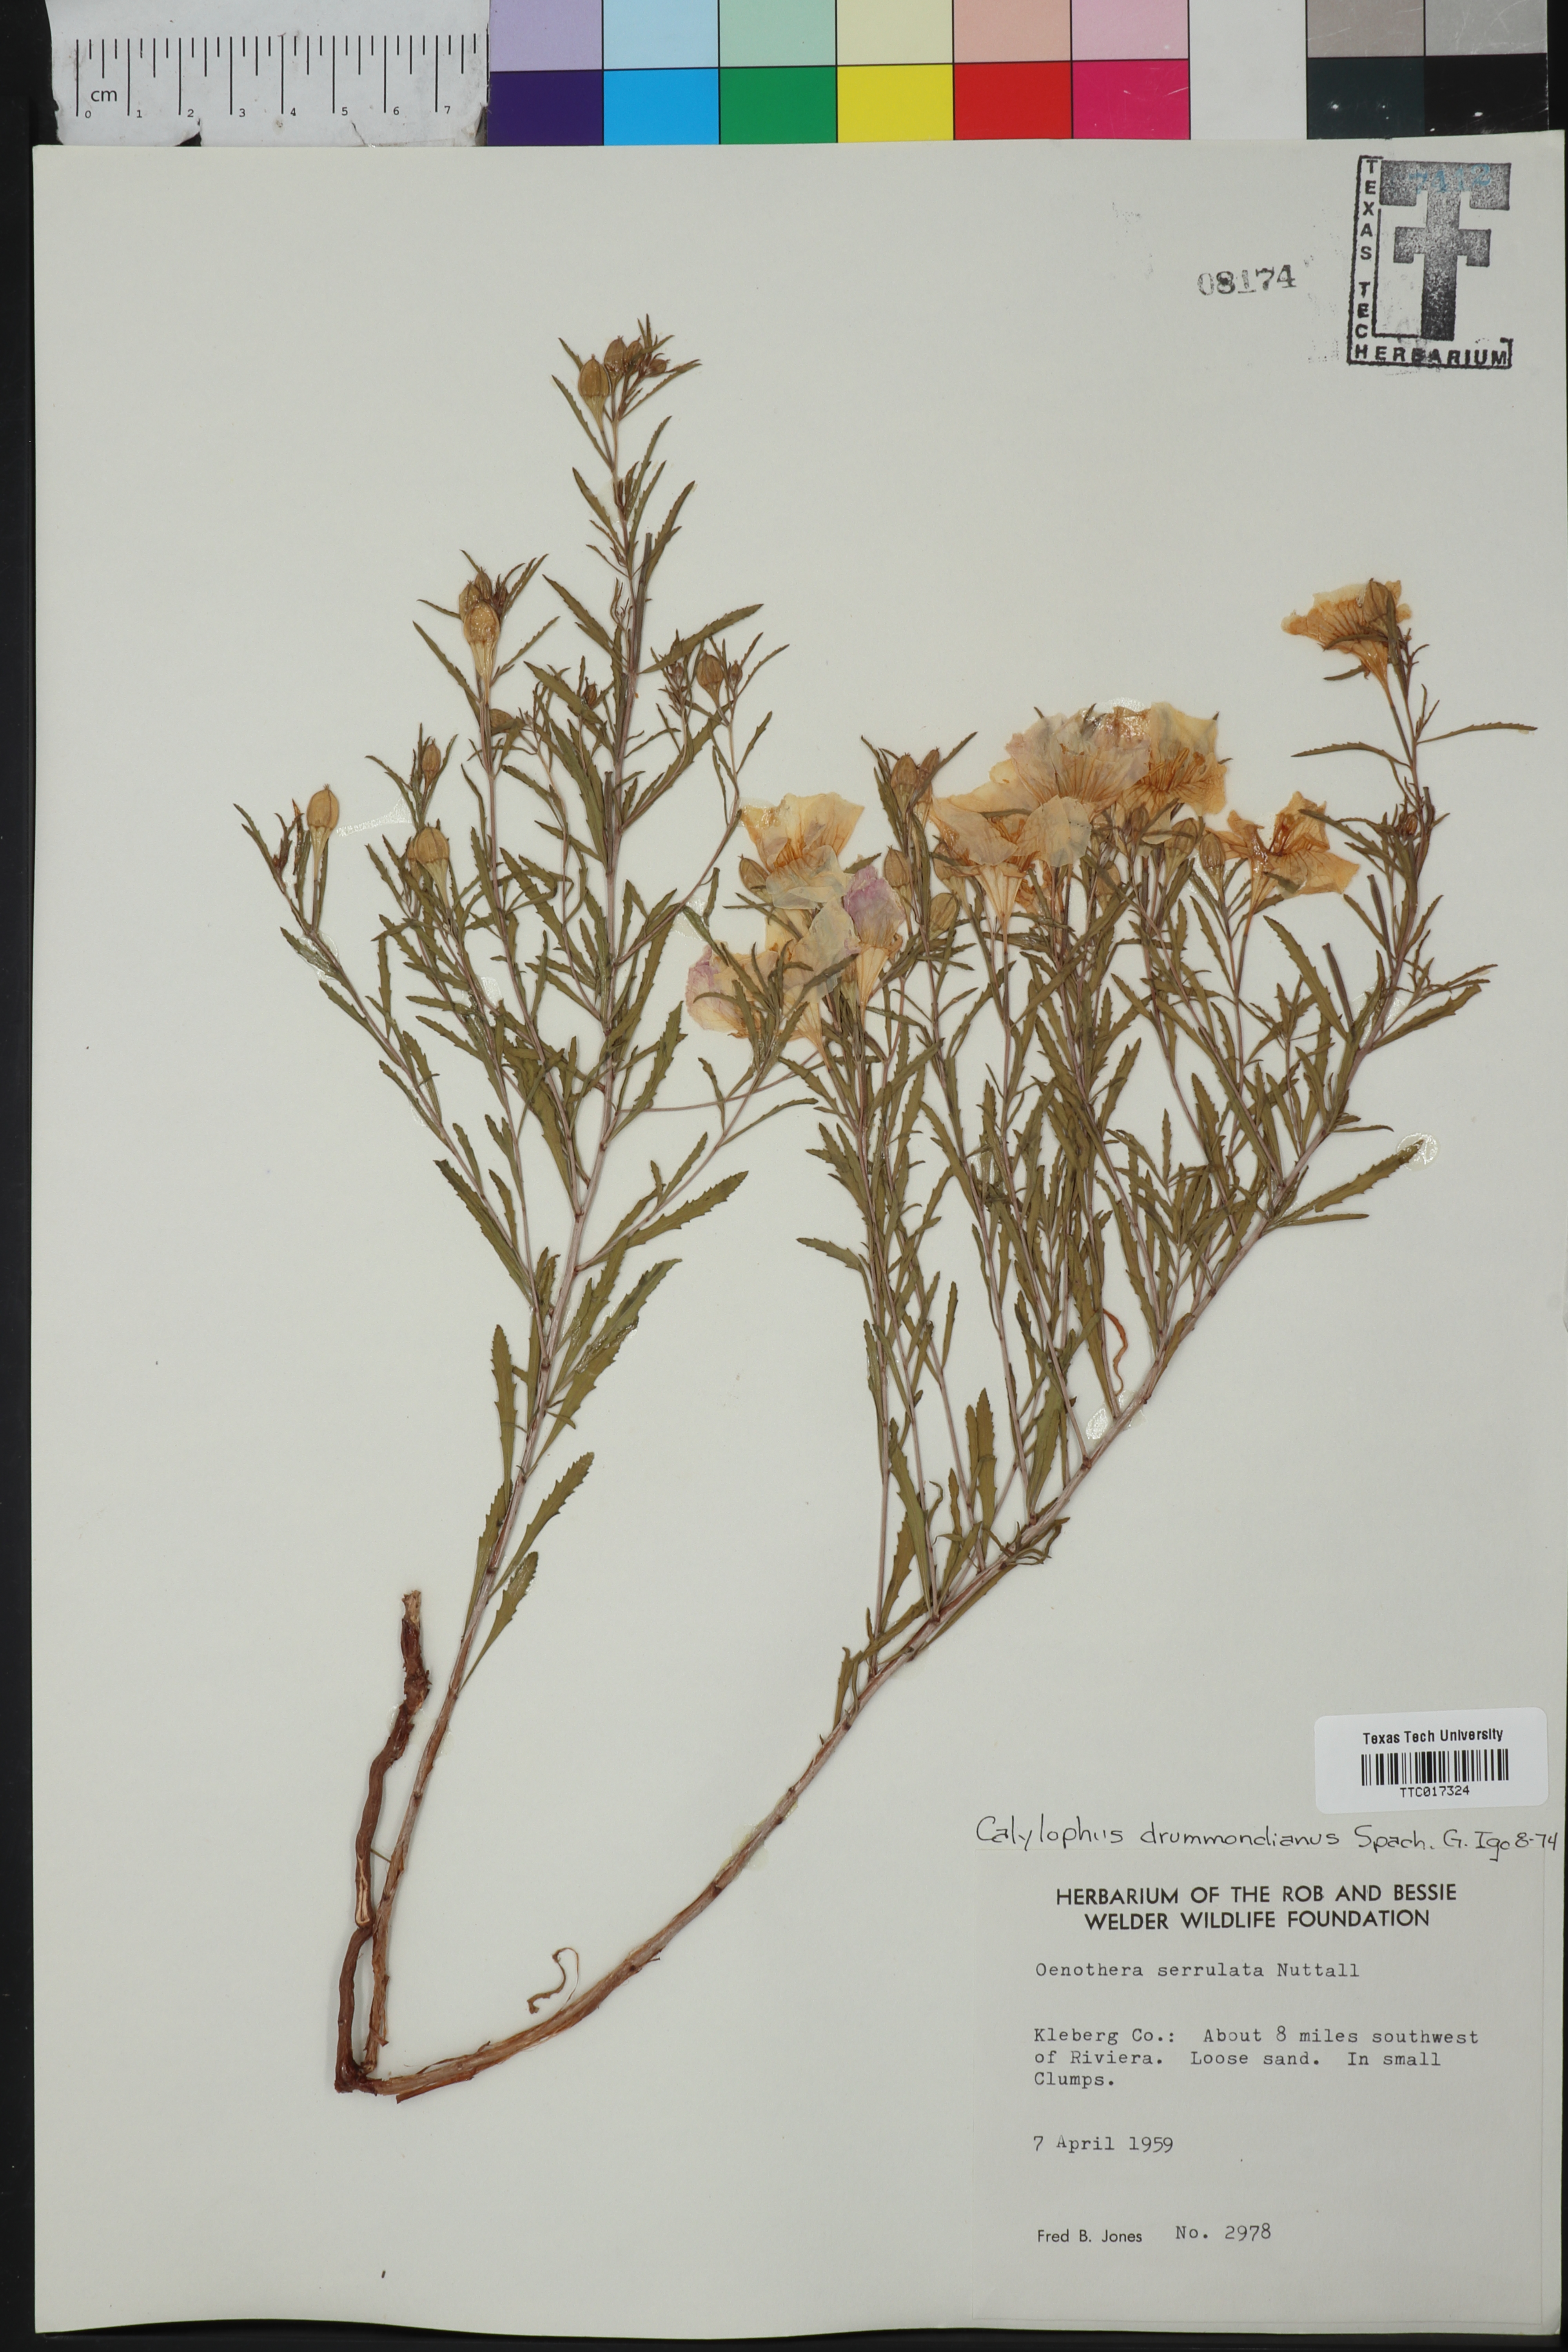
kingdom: Plantae
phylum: Tracheophyta
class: Magnoliopsida
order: Myrtales
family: Onagraceae
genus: Oenothera
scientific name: Oenothera serrulata
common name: Half-shrub calylophus
